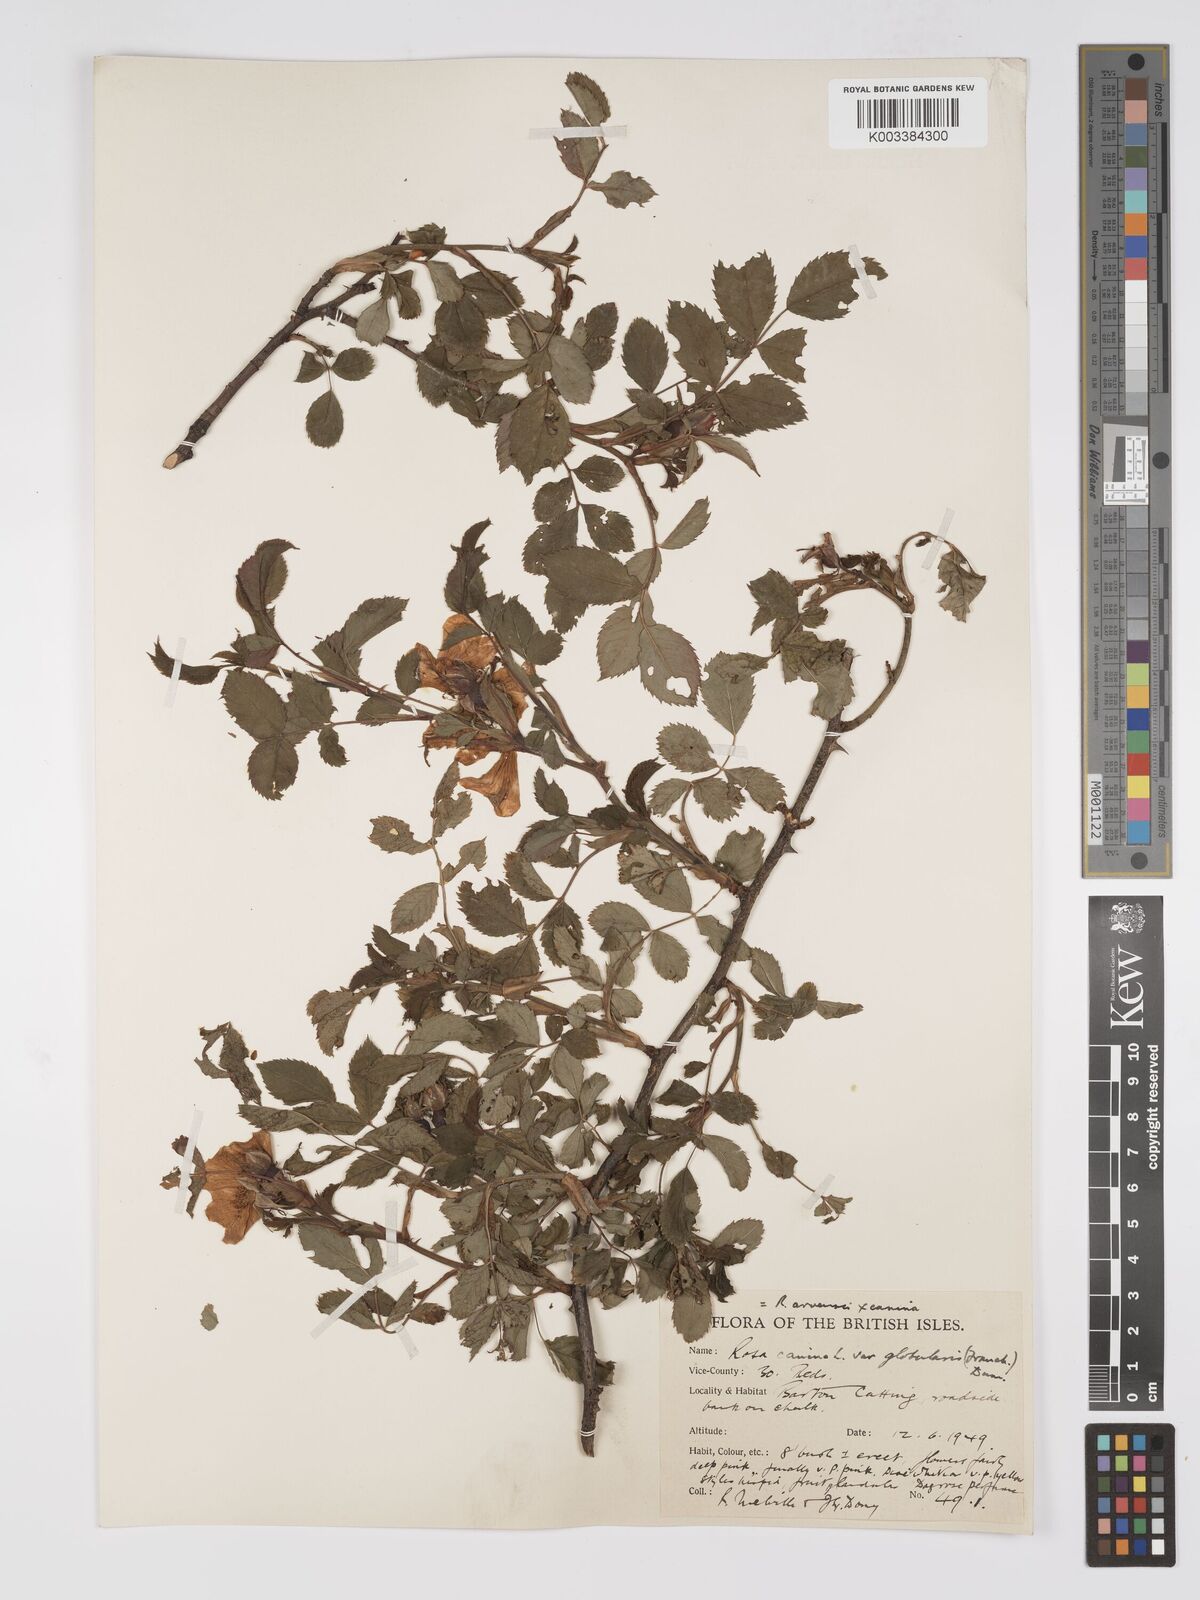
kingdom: Plantae
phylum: Tracheophyta
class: Magnoliopsida
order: Rosales
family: Rosaceae
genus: Rosa
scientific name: Rosa canina
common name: Dog rose
